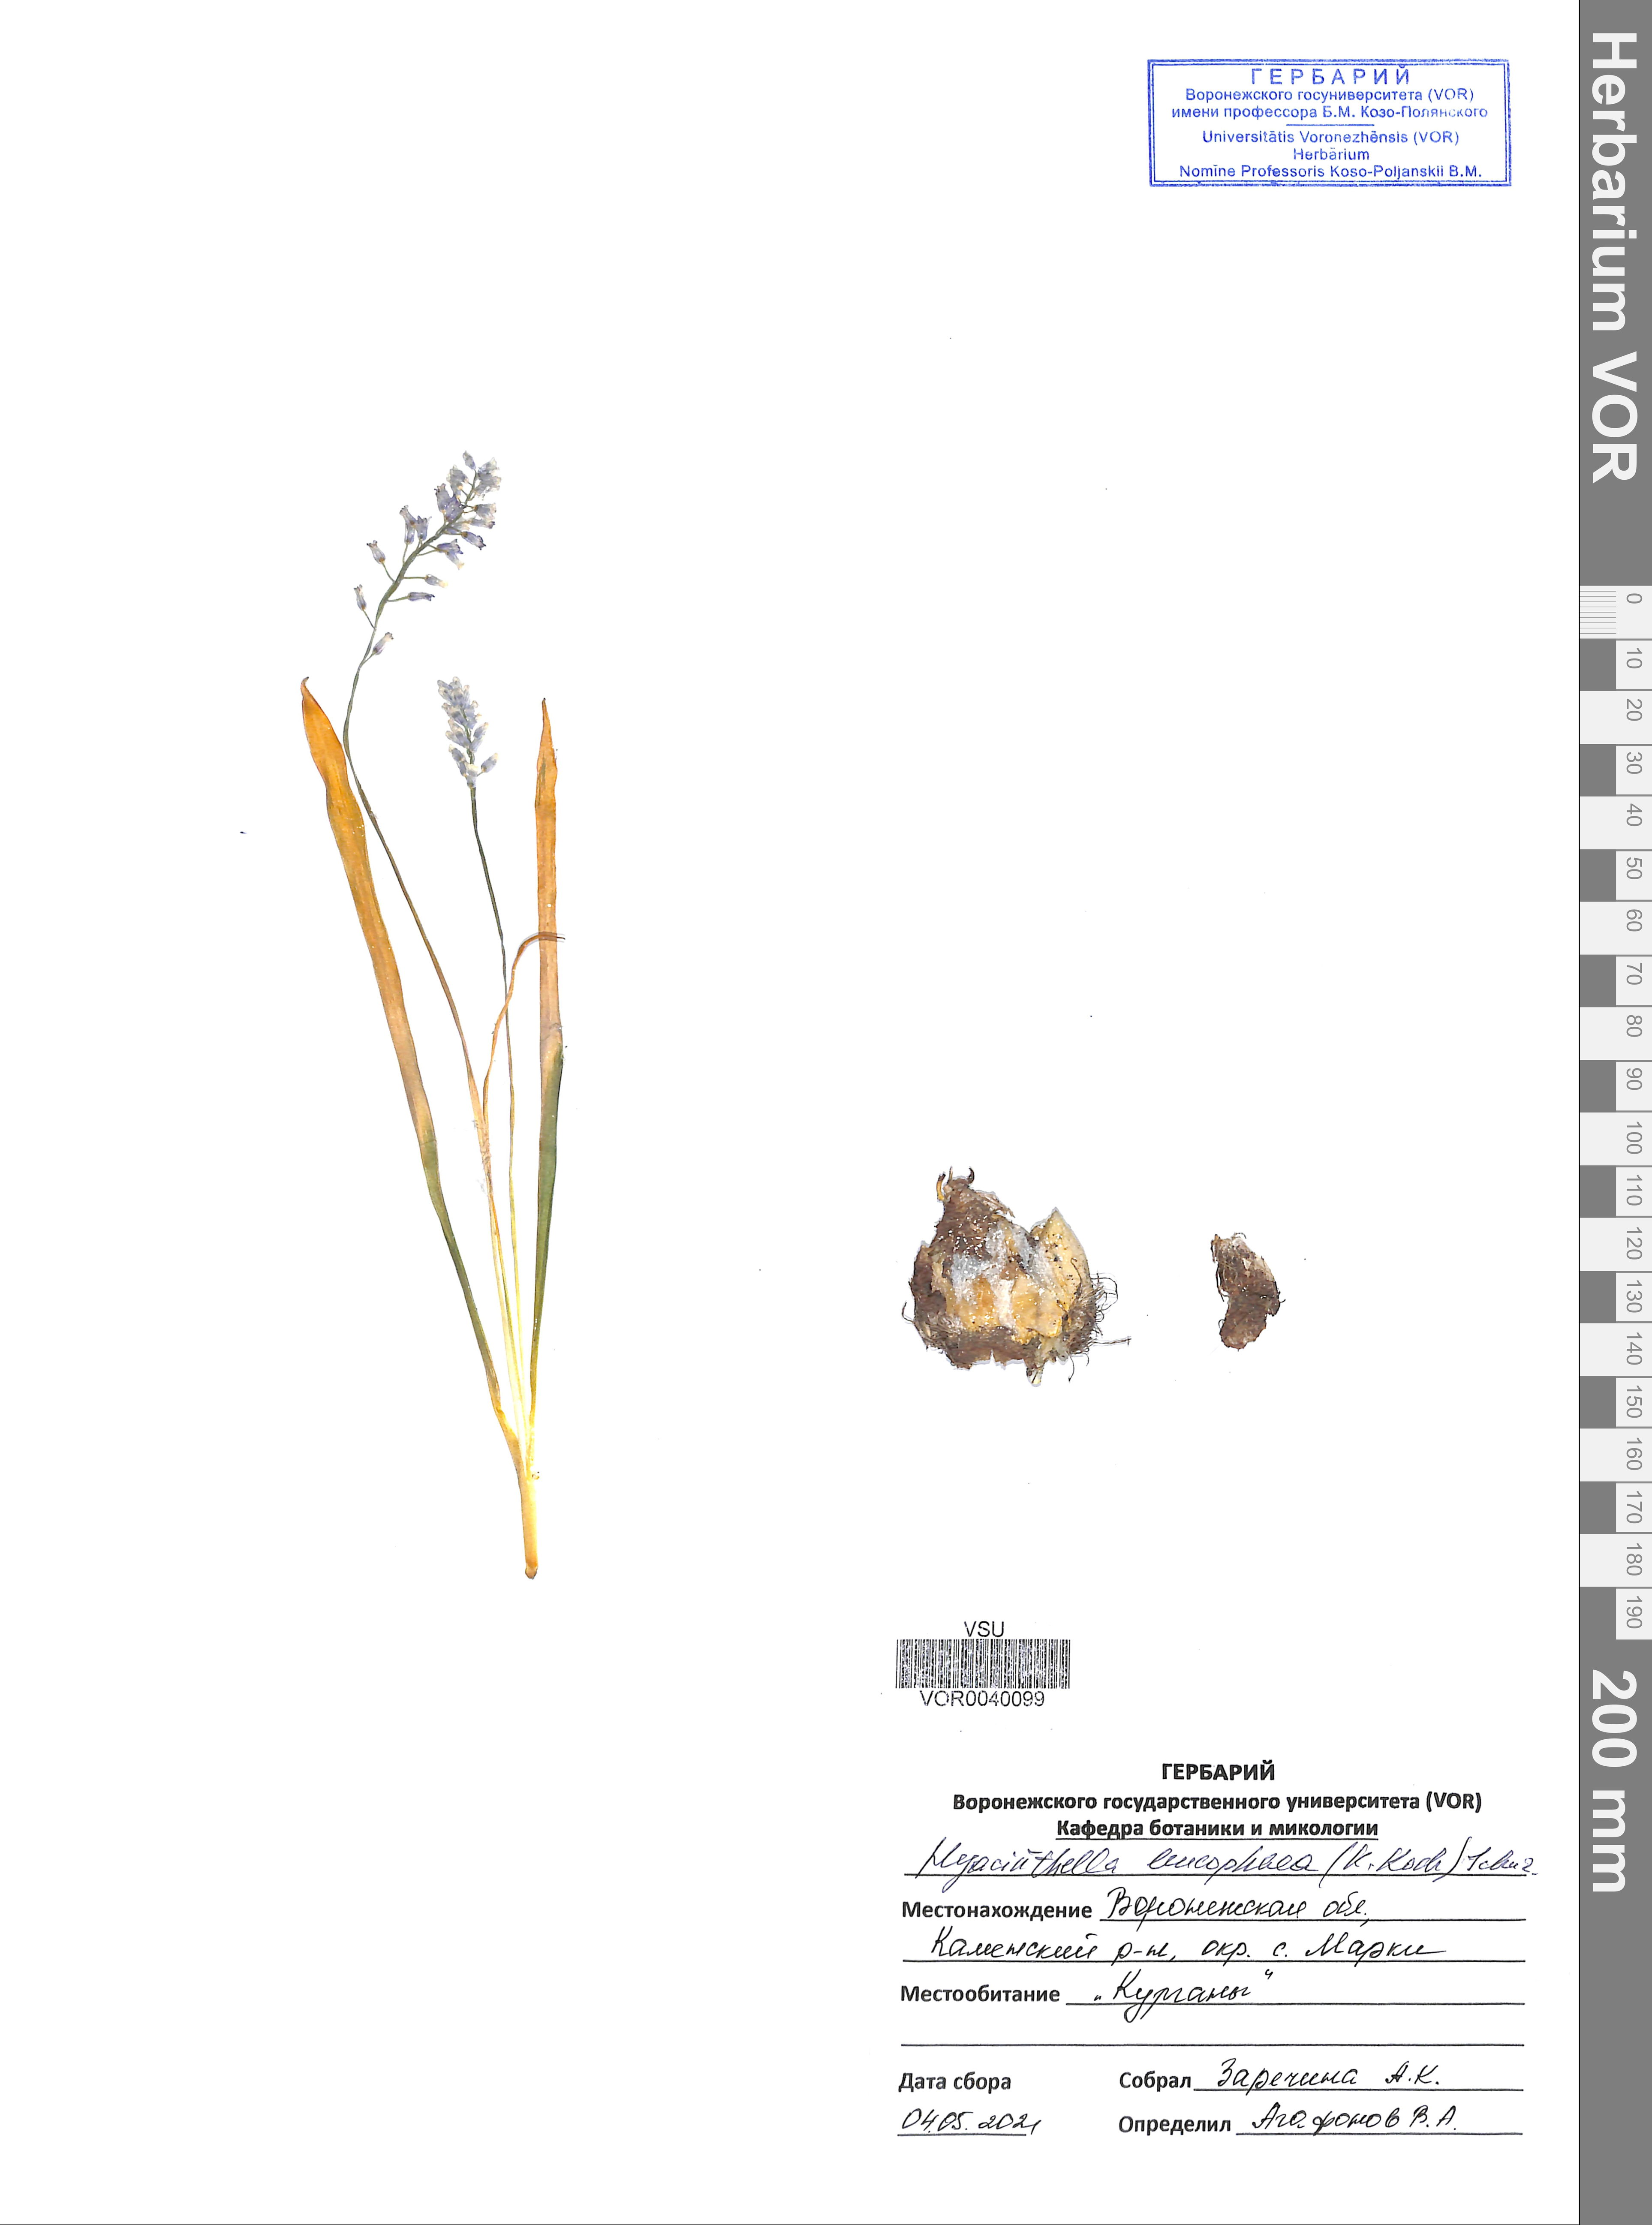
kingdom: Plantae
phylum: Tracheophyta
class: Liliopsida
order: Asparagales
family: Asparagaceae
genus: Hyacinthella
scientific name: Hyacinthella leucophaea
